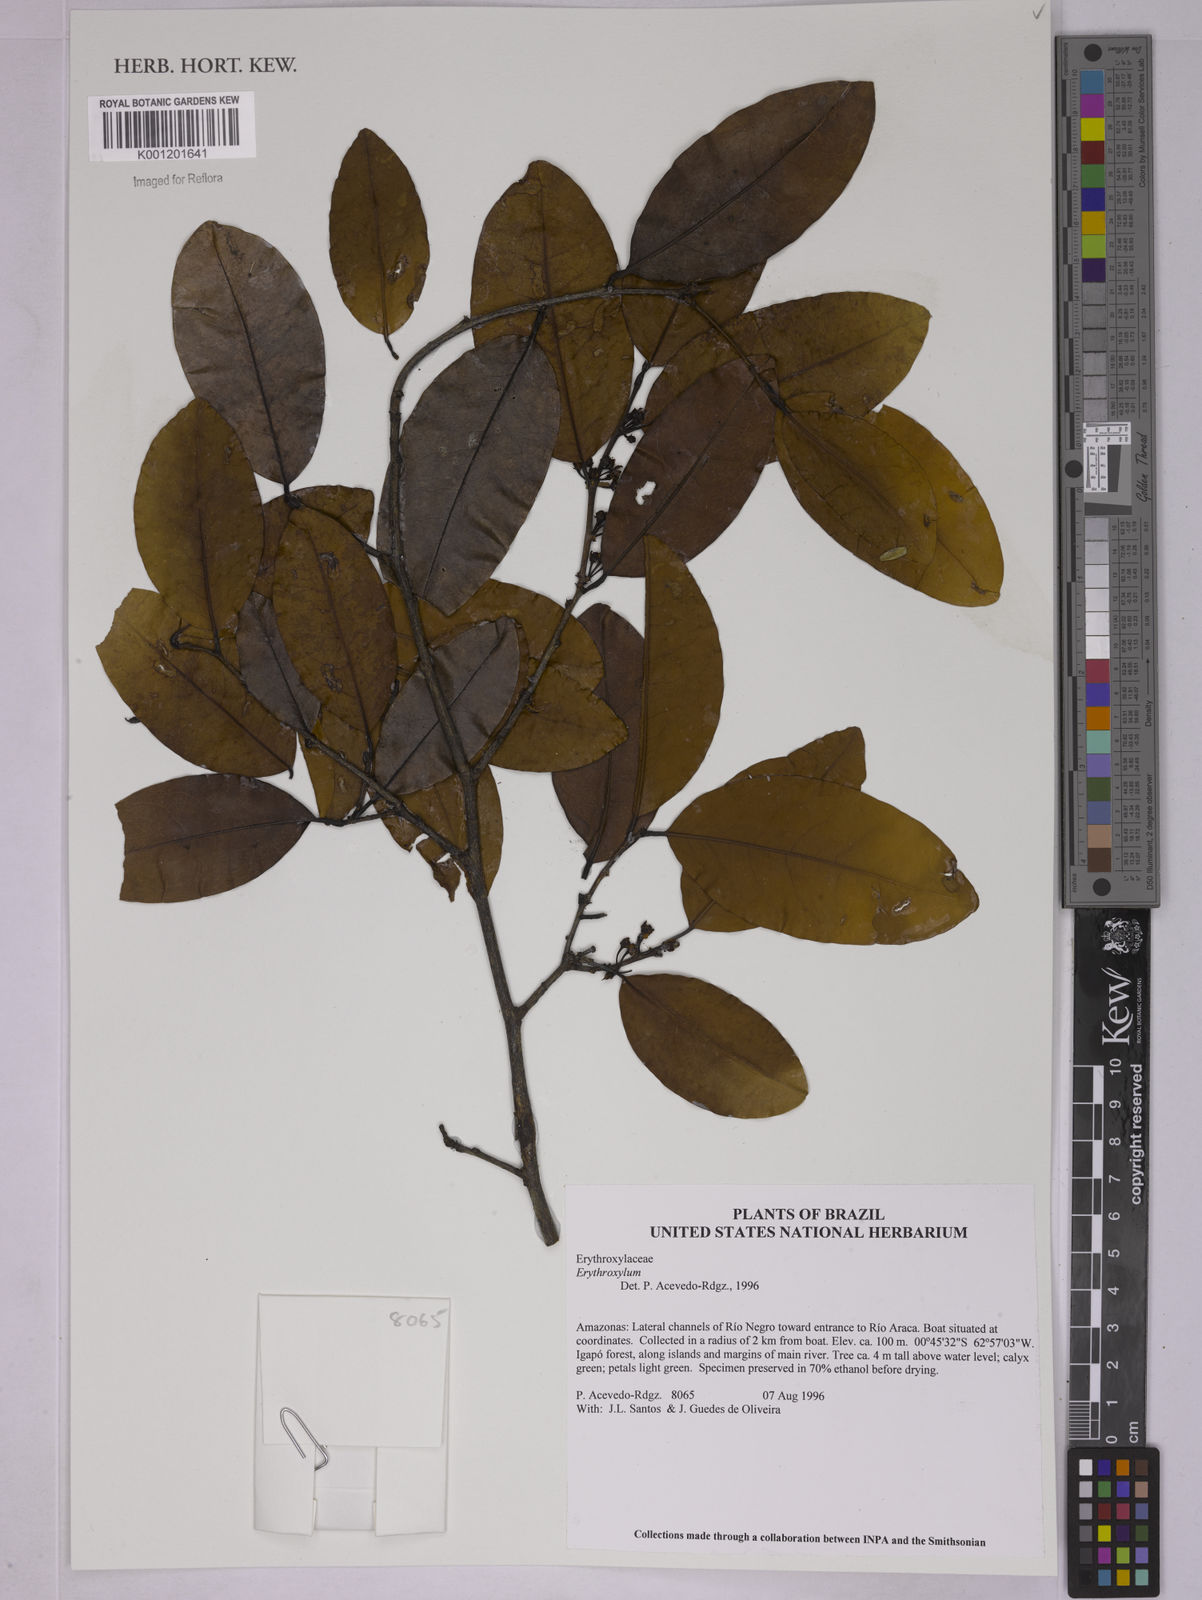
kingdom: Plantae
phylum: Tracheophyta
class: Magnoliopsida
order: Malpighiales
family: Erythroxylaceae
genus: Erythroxylum
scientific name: Erythroxylum
